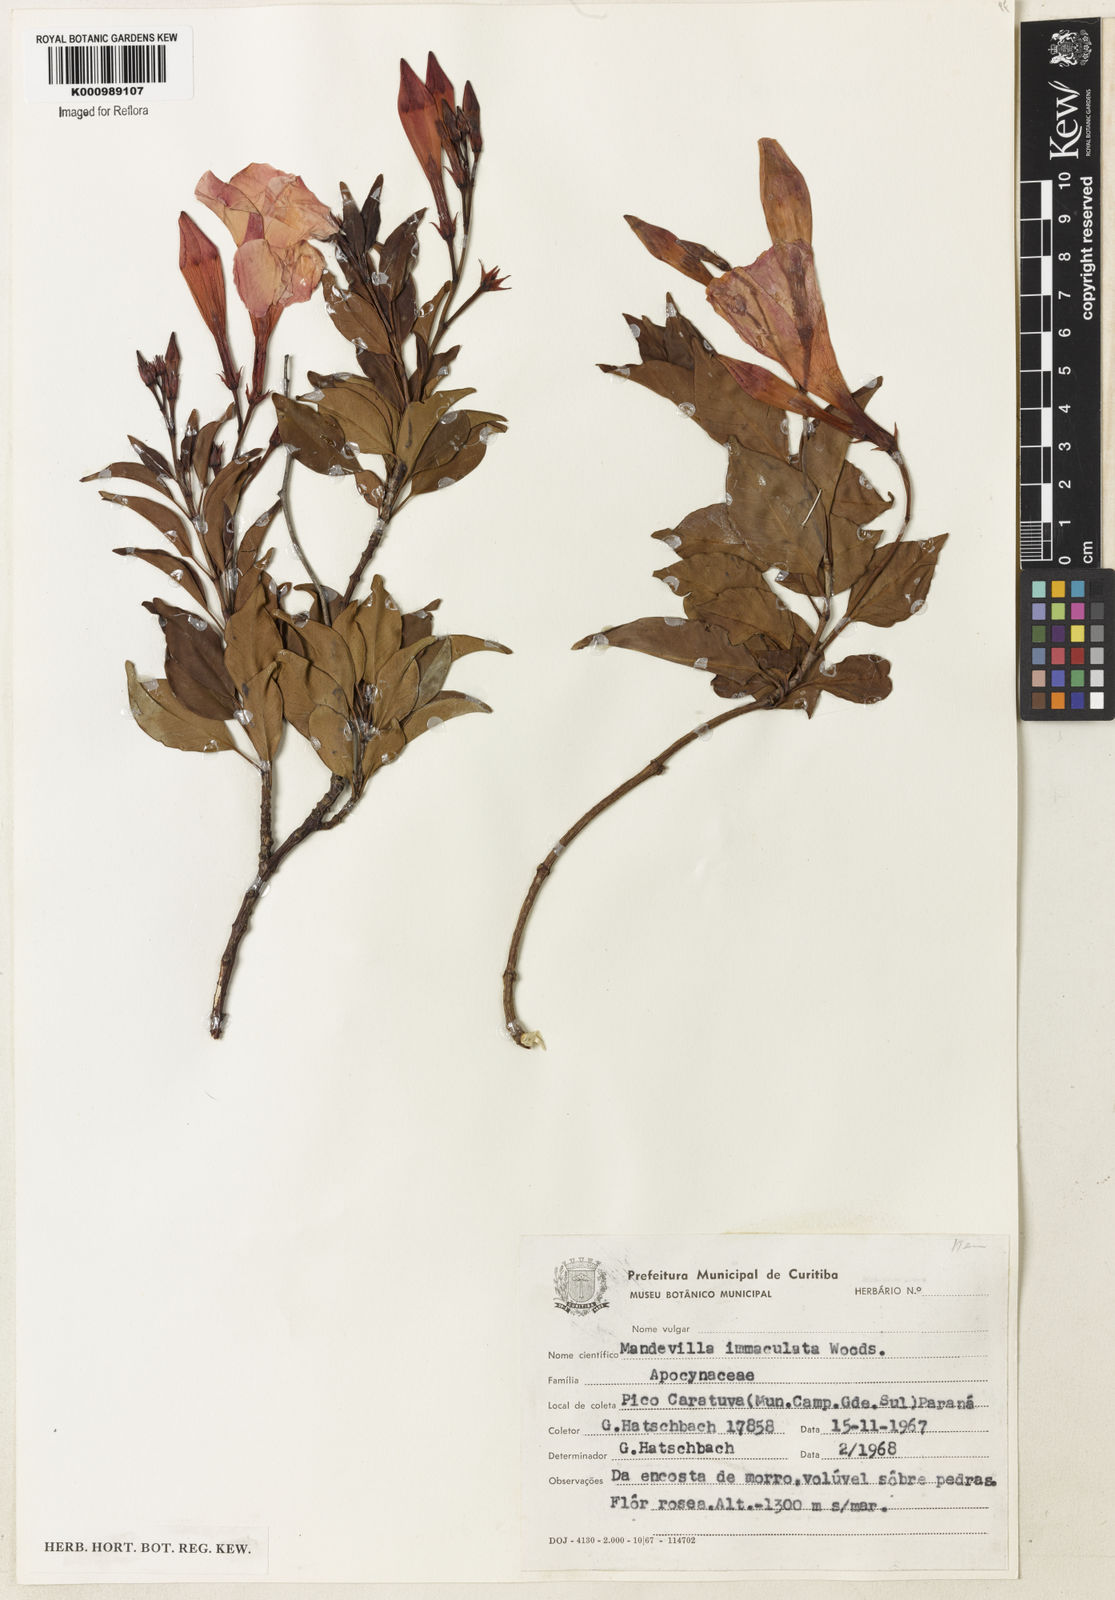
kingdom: Plantae
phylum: Tracheophyta
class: Magnoliopsida
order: Gentianales
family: Apocynaceae
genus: Mandevilla
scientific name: Mandevilla immaculata
